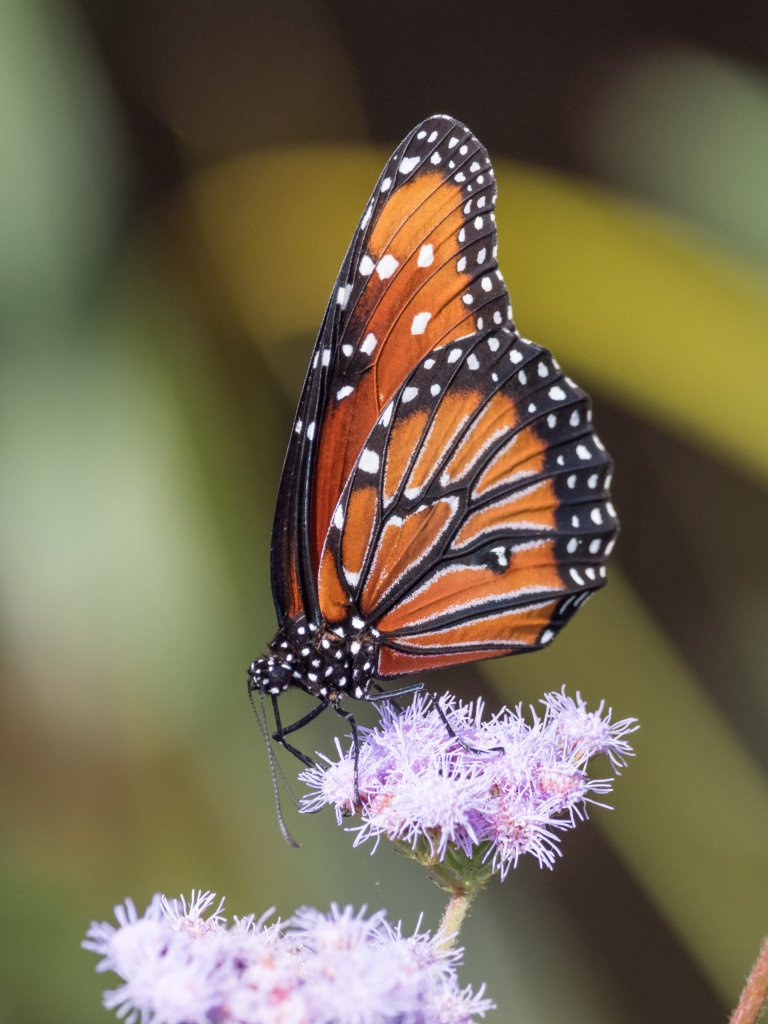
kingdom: Animalia
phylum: Arthropoda
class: Insecta
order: Lepidoptera
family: Nymphalidae
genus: Danaus
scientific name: Danaus gilippus
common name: Queen
